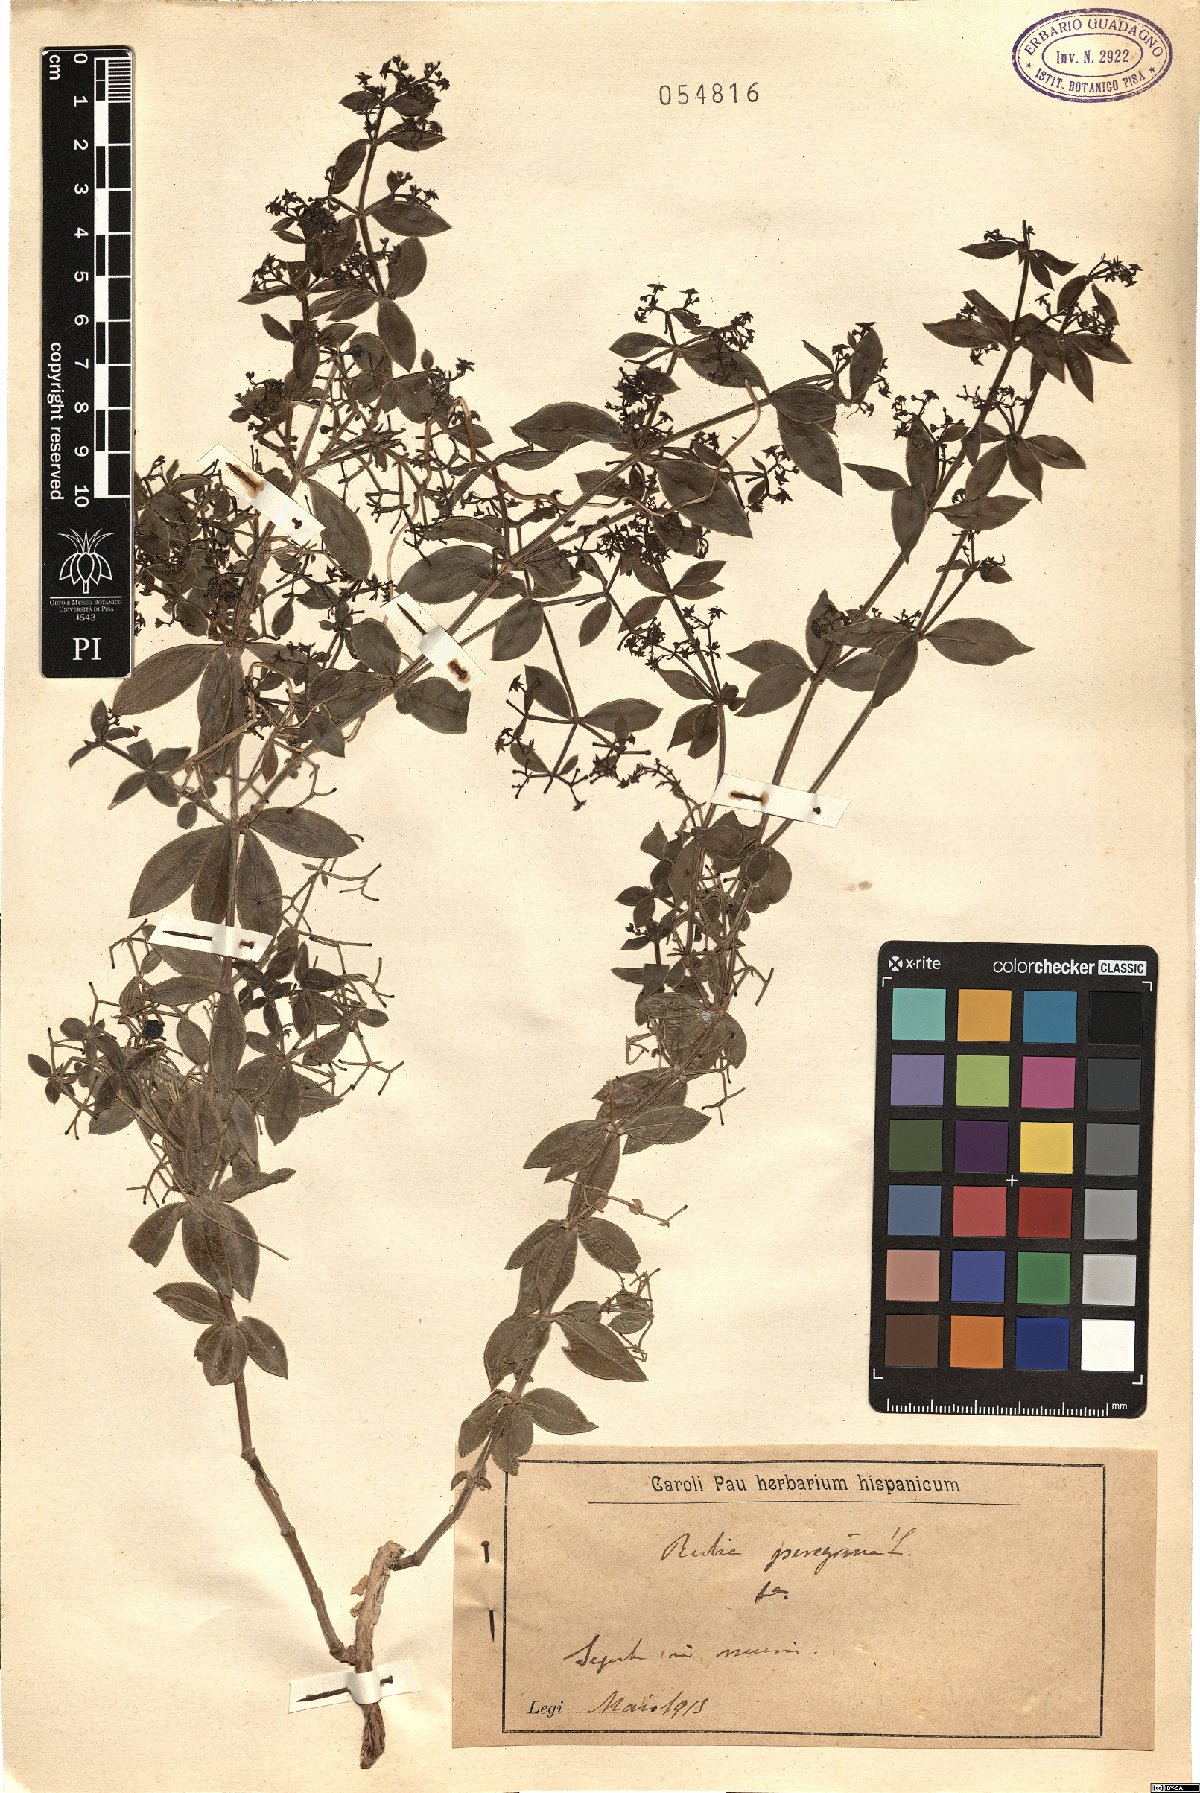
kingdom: Plantae
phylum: Tracheophyta
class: Magnoliopsida
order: Gentianales
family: Rubiaceae
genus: Rubia
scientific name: Rubia peregrina
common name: Wild madder
